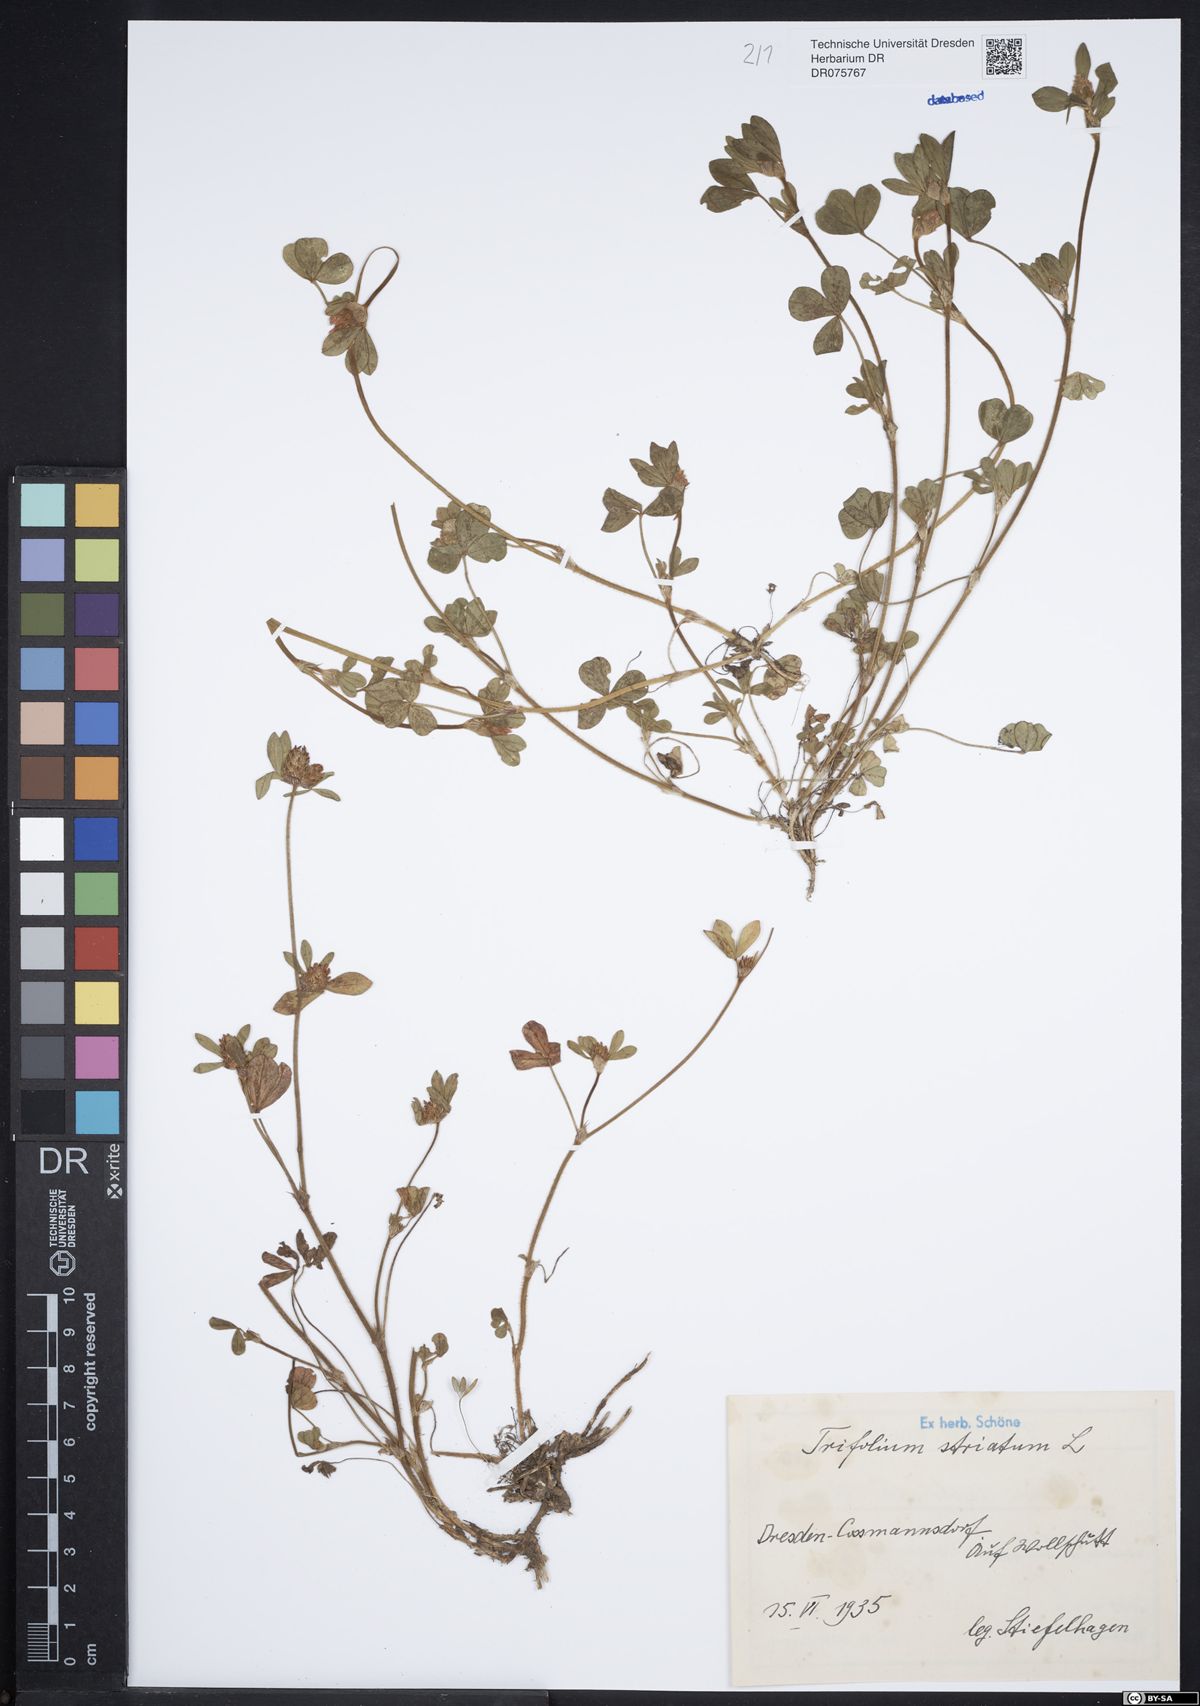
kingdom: Plantae
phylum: Tracheophyta
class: Magnoliopsida
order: Fabales
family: Fabaceae
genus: Trifolium
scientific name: Trifolium striatum
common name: Knotted clover
